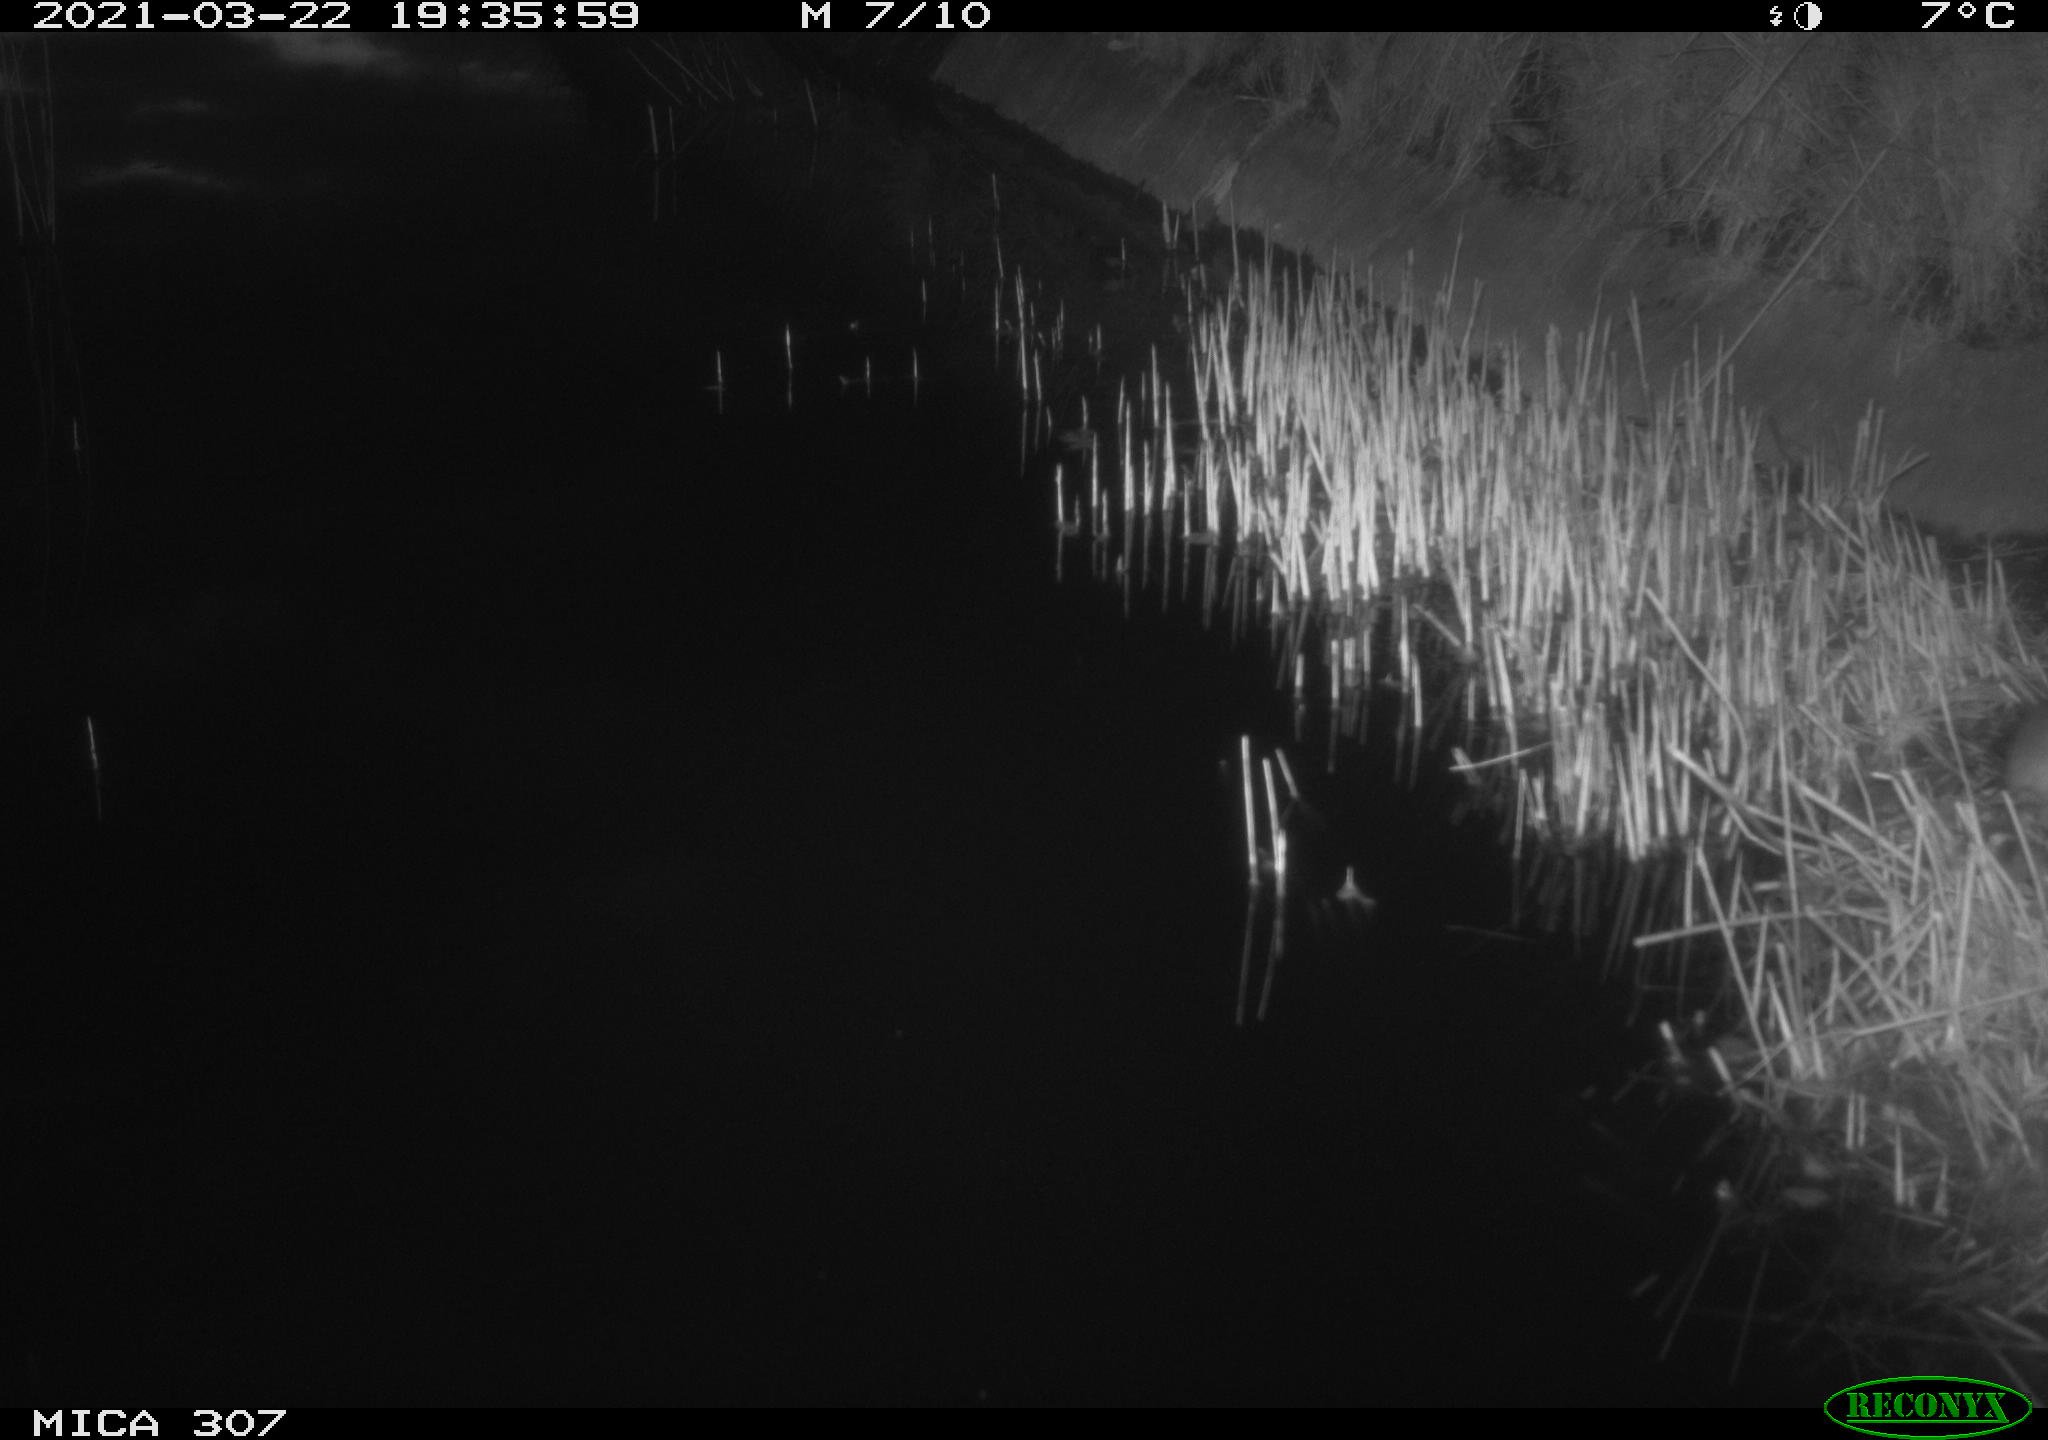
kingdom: Animalia
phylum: Chordata
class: Mammalia
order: Rodentia
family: Muridae
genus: Rattus
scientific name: Rattus norvegicus
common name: Brown rat
